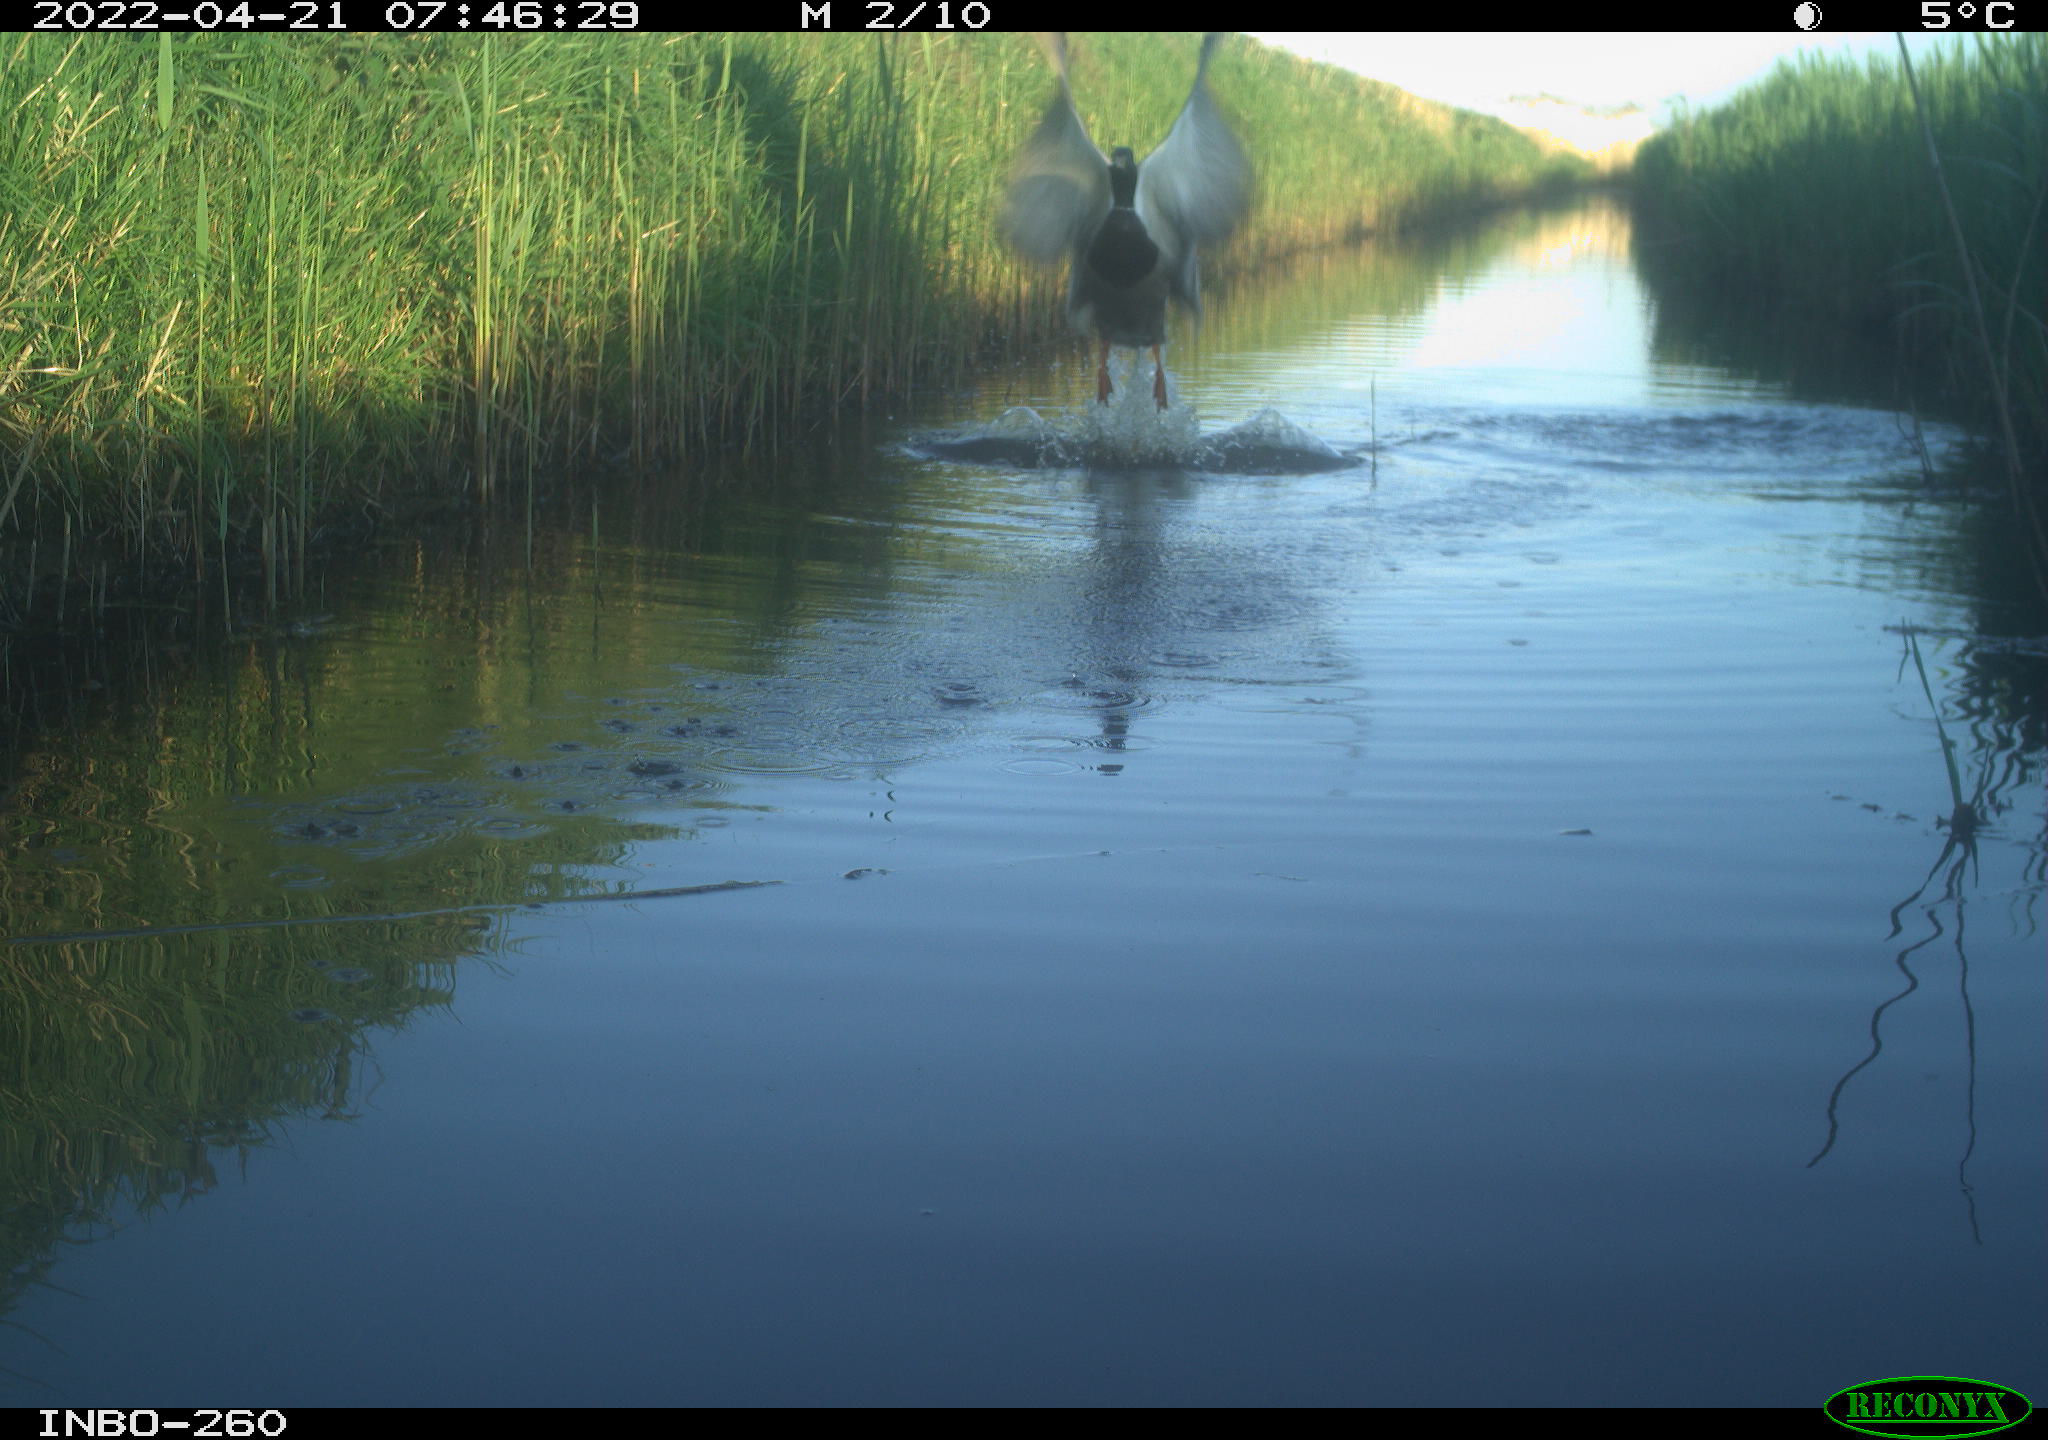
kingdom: Animalia
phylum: Chordata
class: Aves
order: Anseriformes
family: Anatidae
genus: Anas
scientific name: Anas platyrhynchos
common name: Mallard
